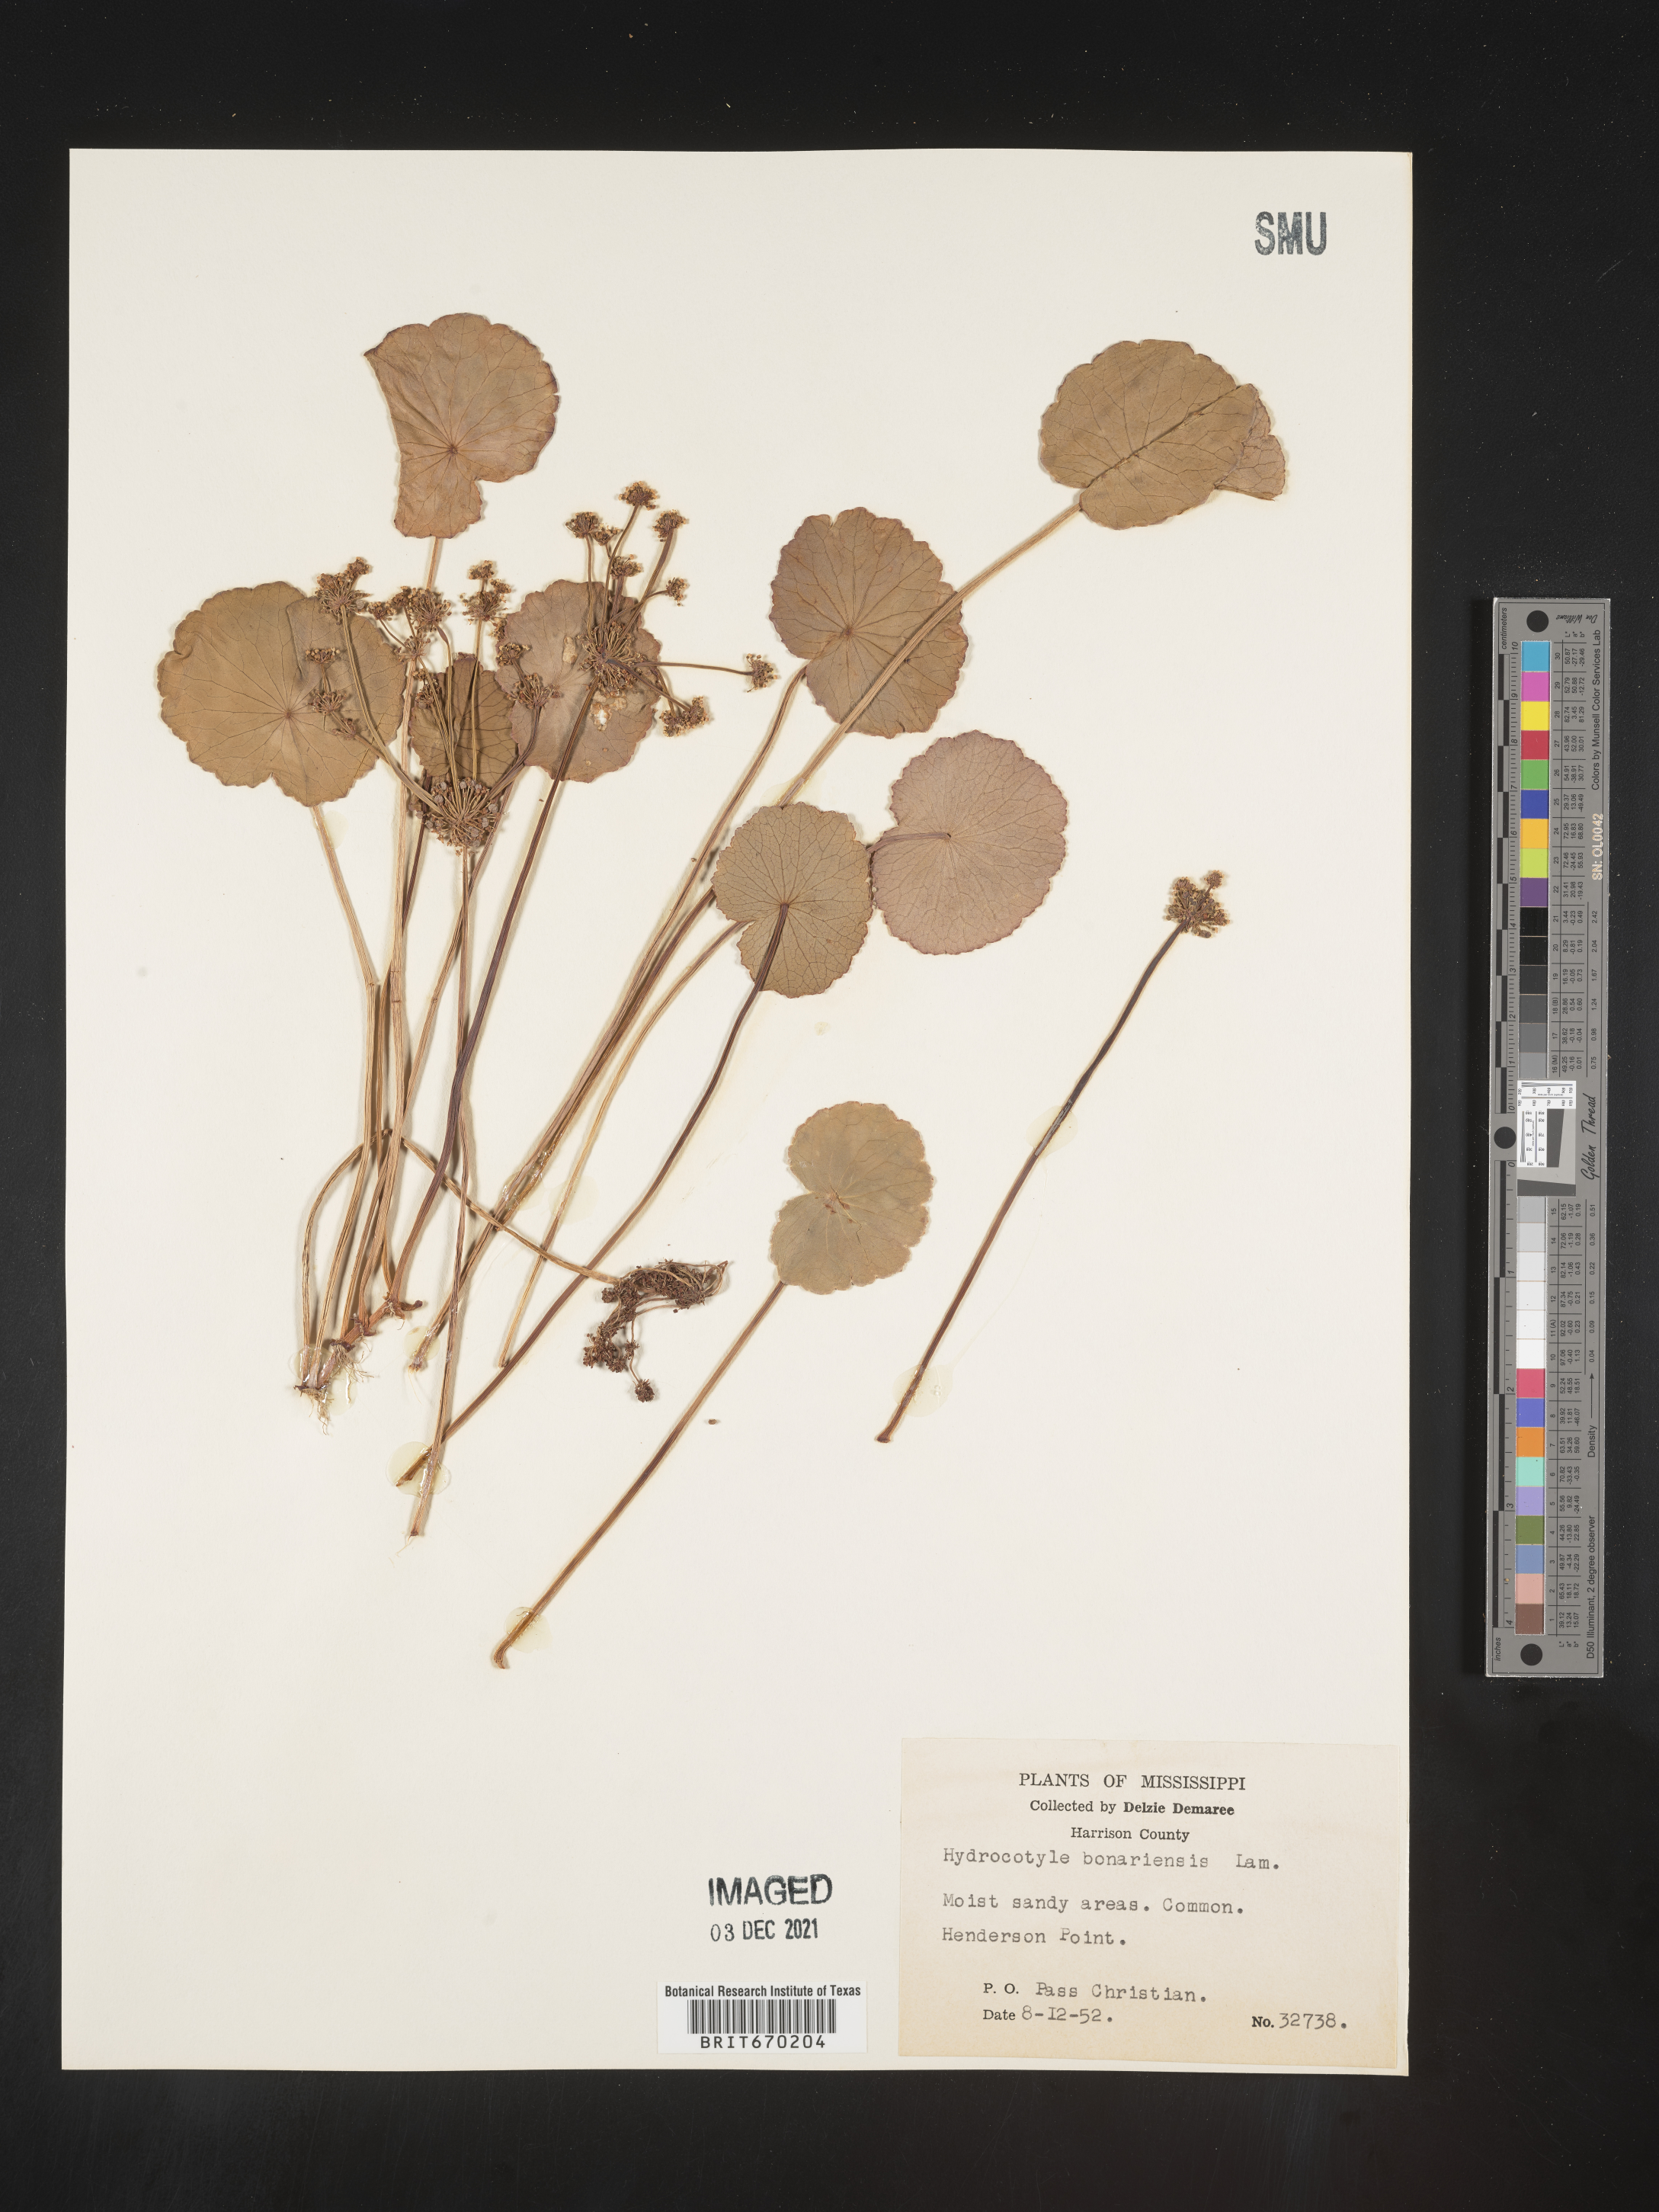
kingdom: Plantae
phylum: Tracheophyta
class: Magnoliopsida
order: Apiales
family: Araliaceae
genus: Hydrocotyle
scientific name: Hydrocotyle bonariensis
